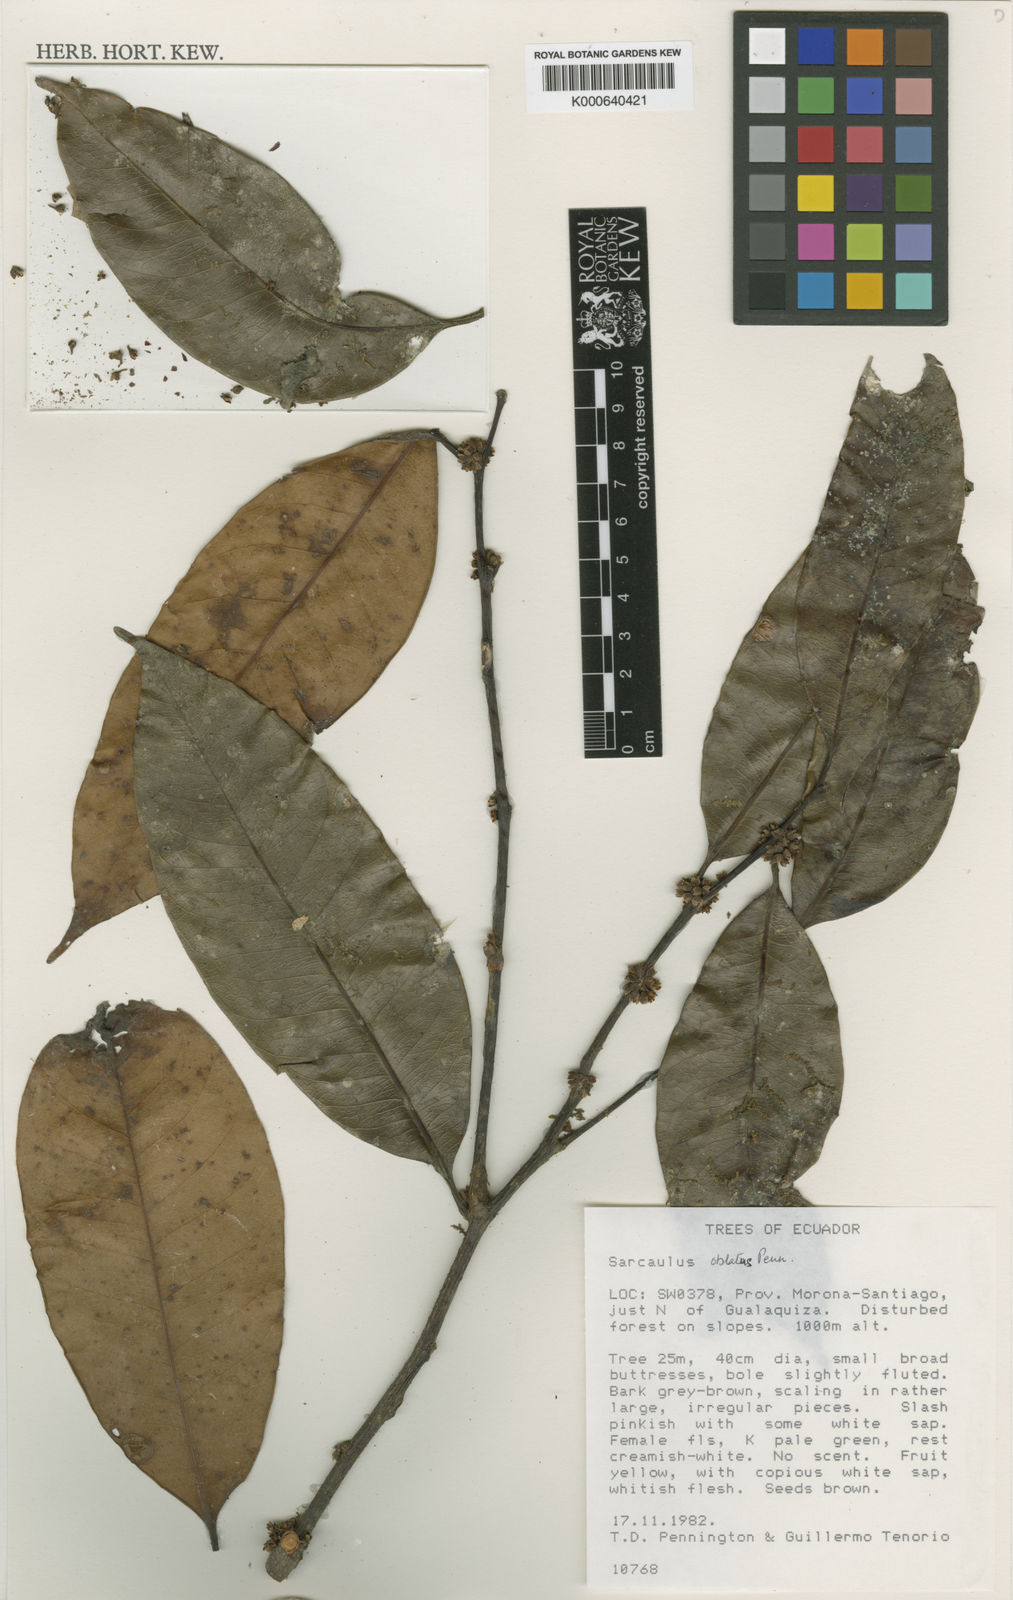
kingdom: Plantae
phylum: Tracheophyta
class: Magnoliopsida
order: Ericales
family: Sapotaceae
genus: Sarcaulus
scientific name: Sarcaulus oblatus
